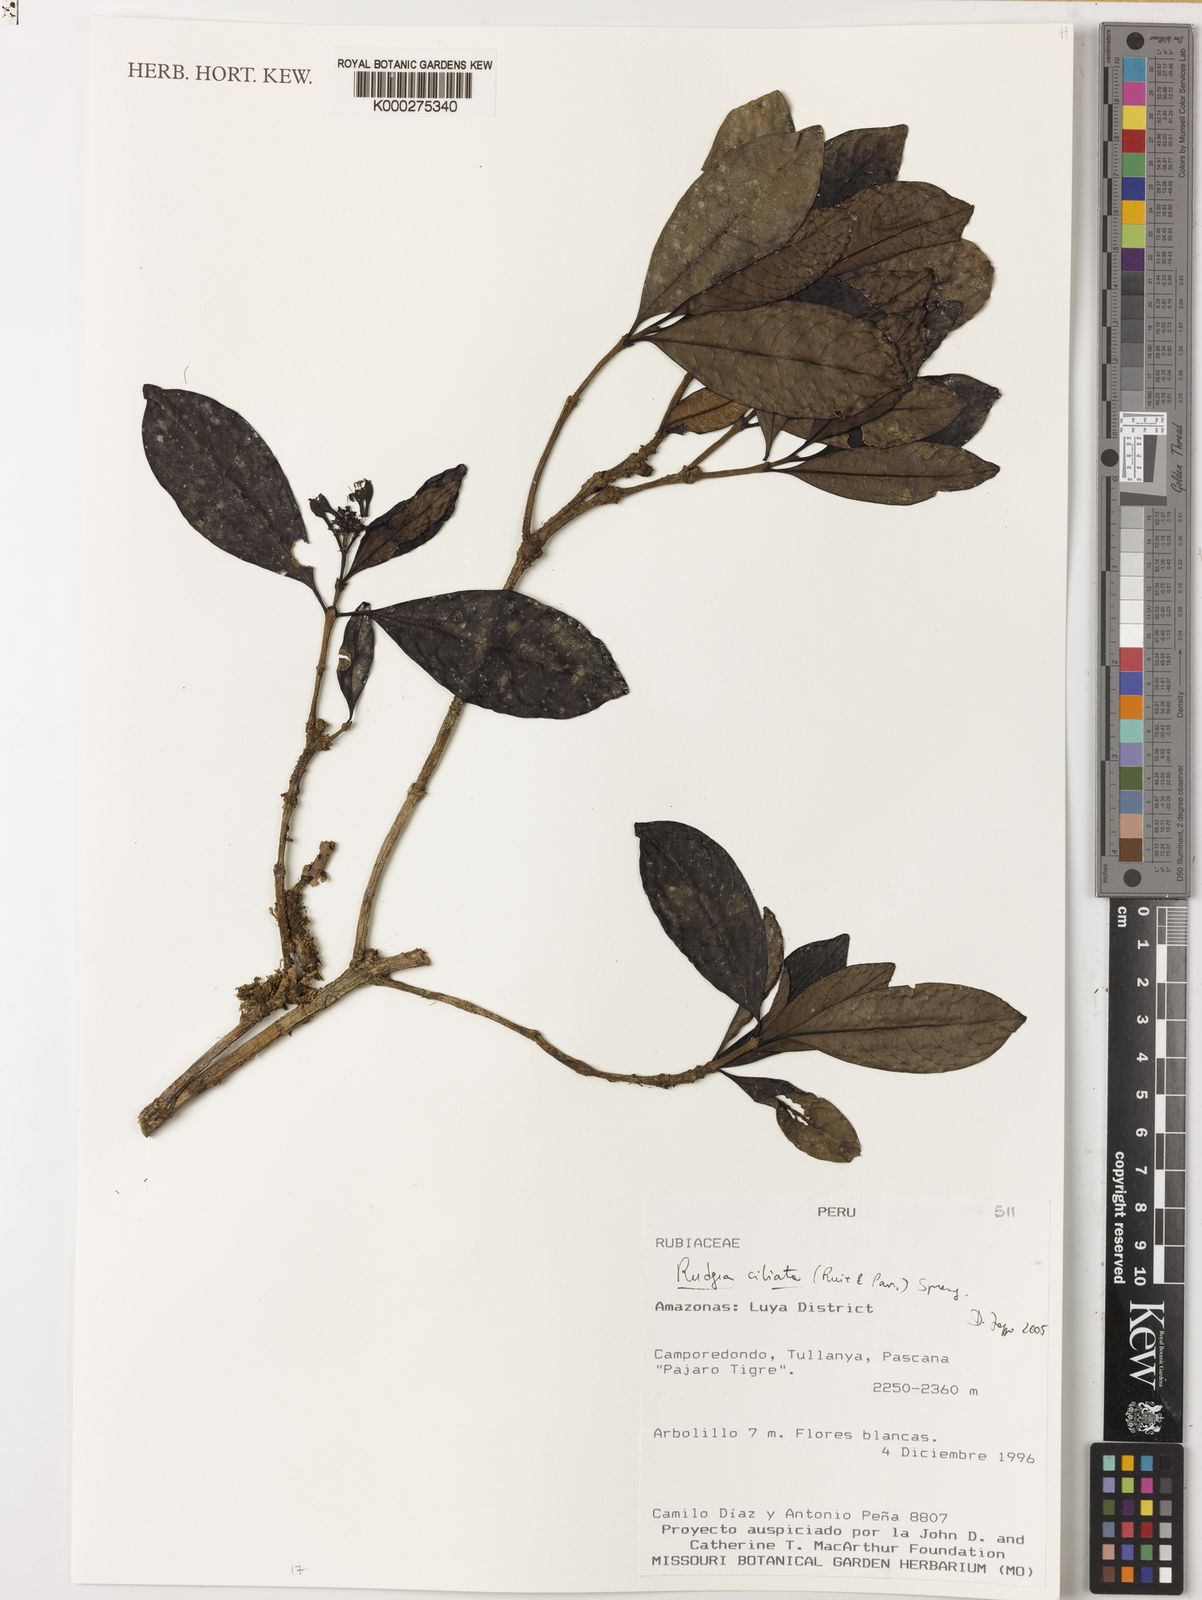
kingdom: Plantae
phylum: Tracheophyta
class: Magnoliopsida
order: Gentianales
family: Rubiaceae
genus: Rudgea
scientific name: Rudgea ciliata
